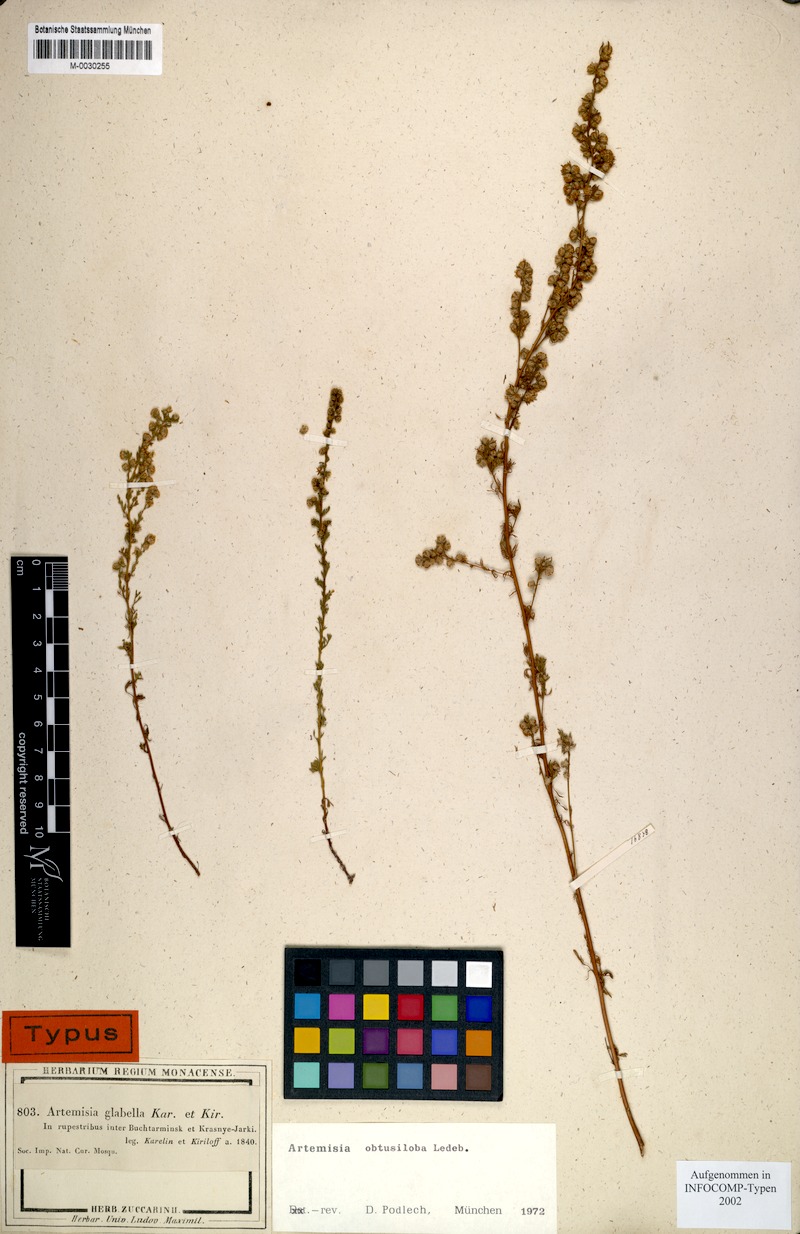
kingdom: Plantae
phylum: Tracheophyta
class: Magnoliopsida
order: Asterales
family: Asteraceae
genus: Artemisia
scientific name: Artemisia obtusiloba
